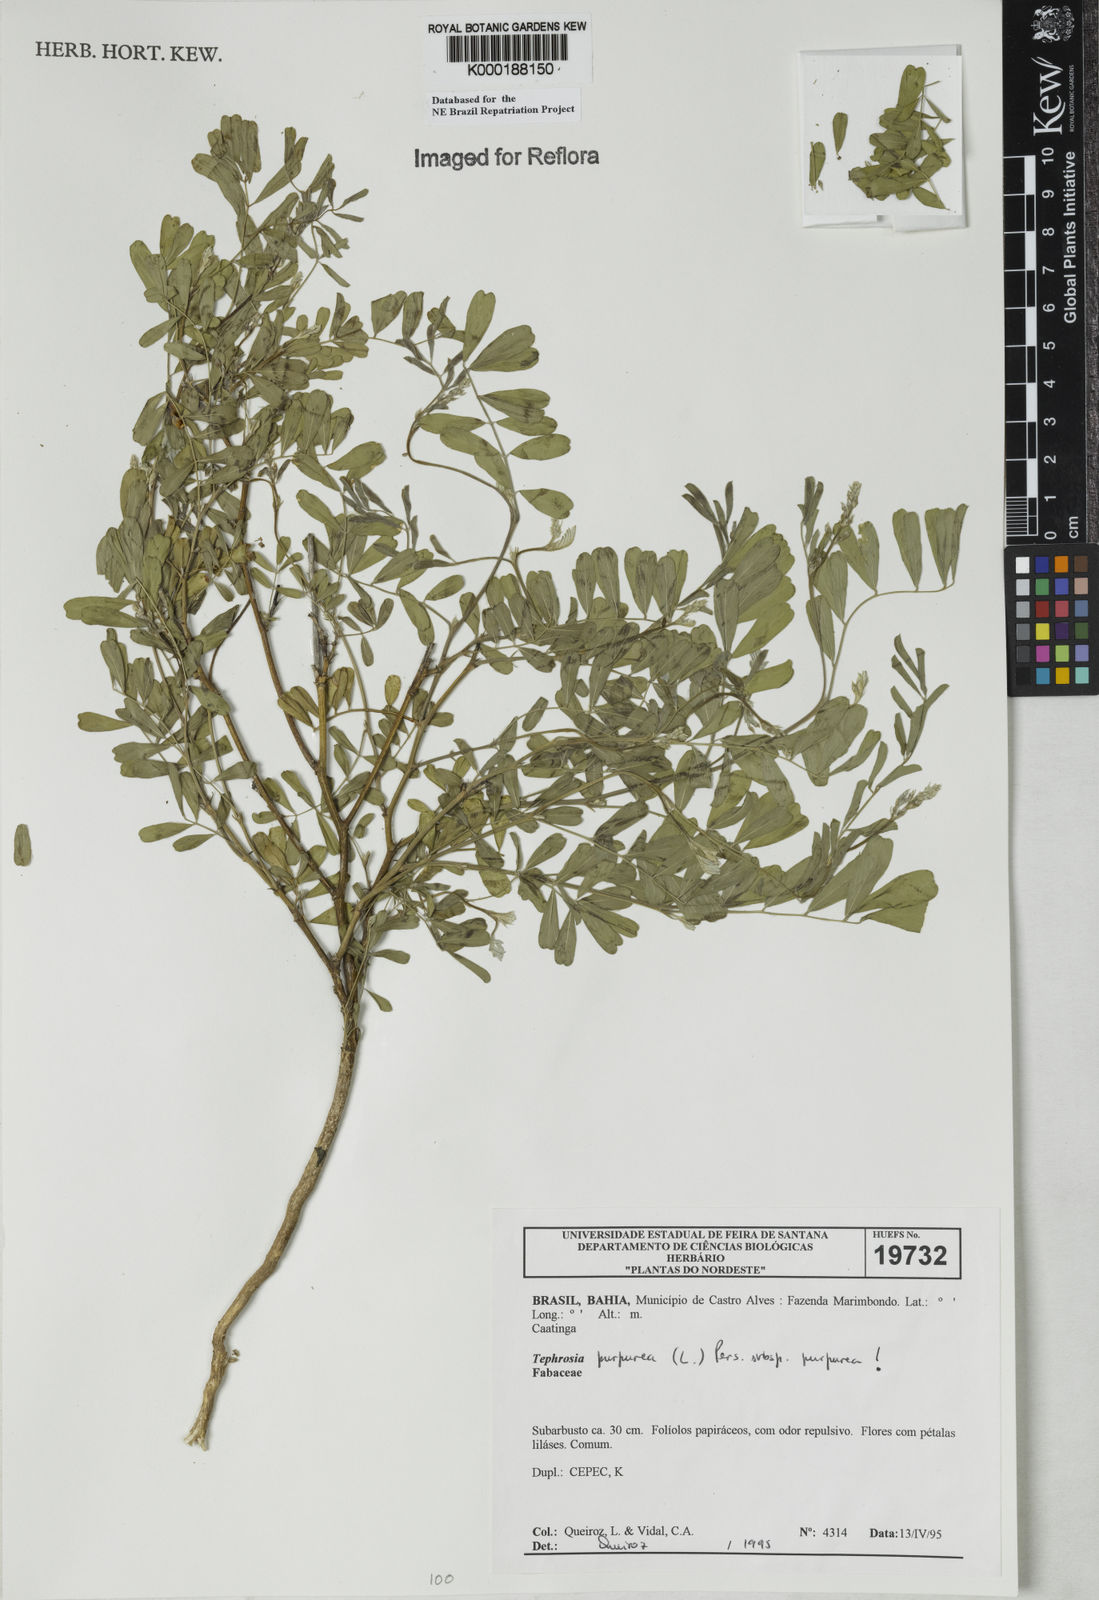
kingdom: Plantae
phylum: Tracheophyta
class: Magnoliopsida
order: Fabales
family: Fabaceae
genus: Tephrosia
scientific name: Tephrosia purpurea
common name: Fishpoison
